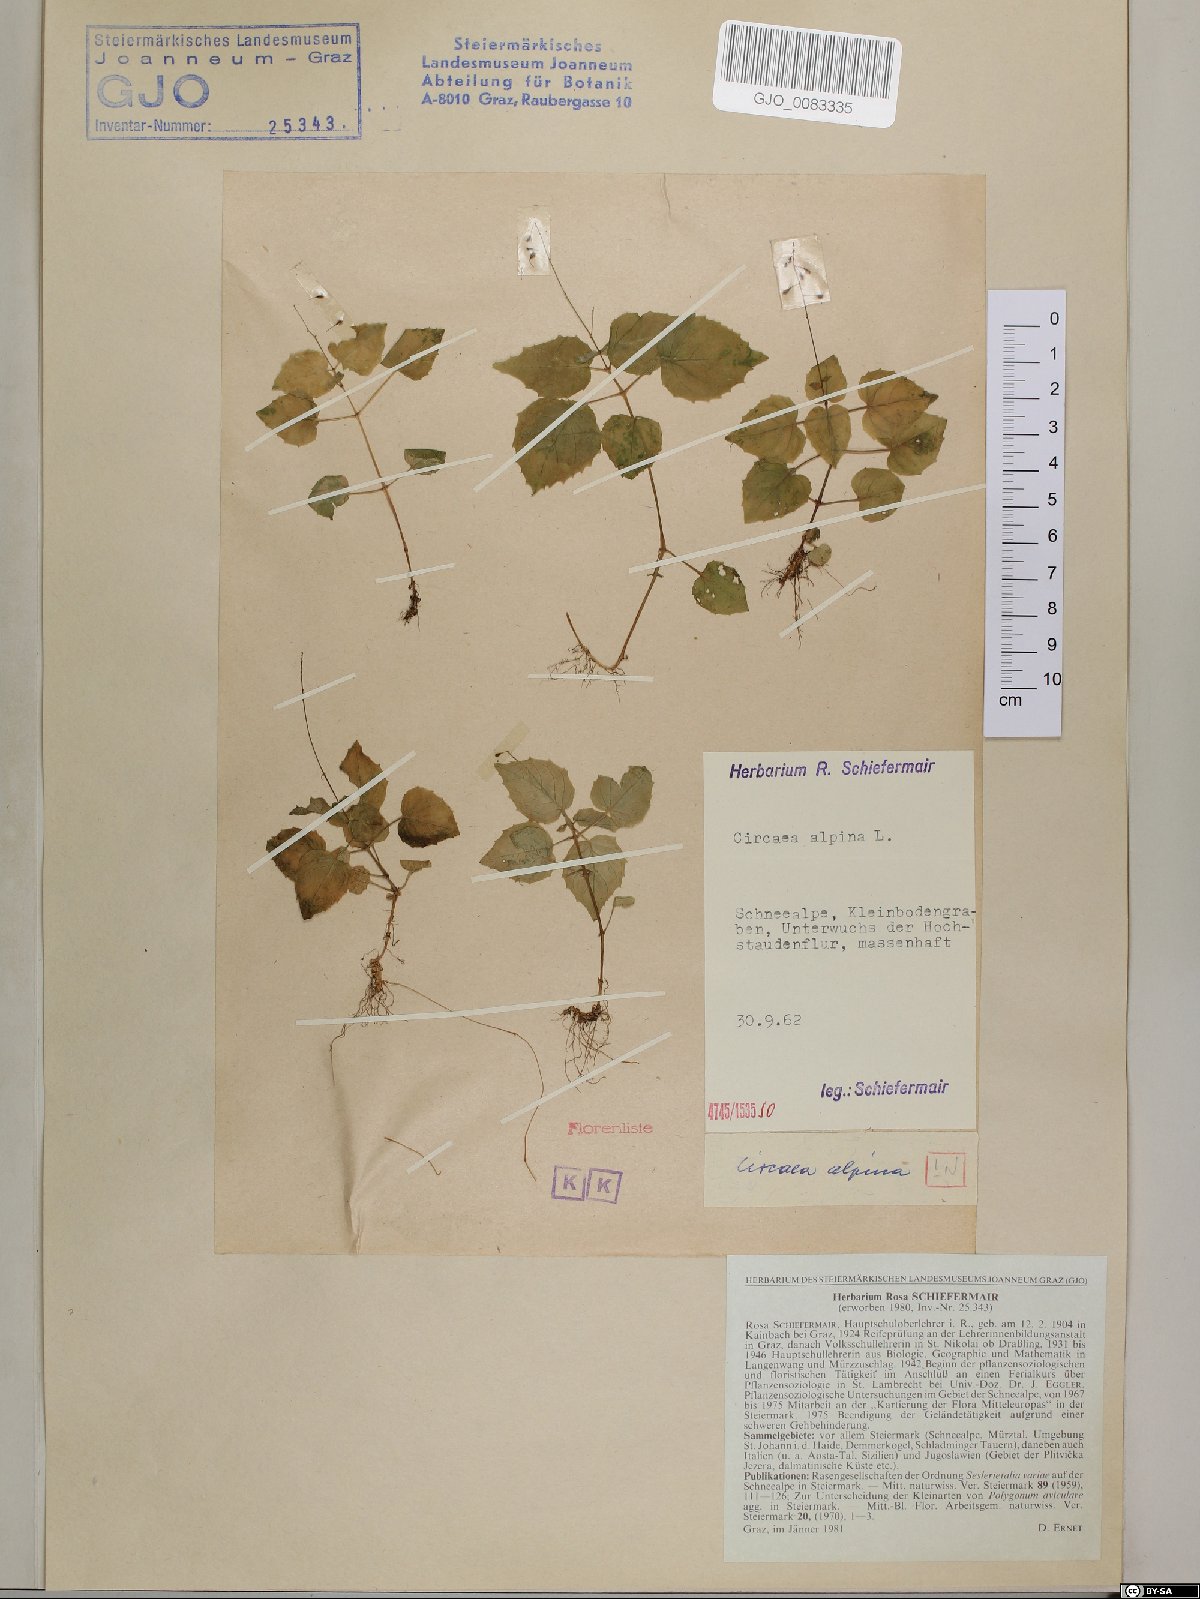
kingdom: Plantae
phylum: Tracheophyta
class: Magnoliopsida
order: Myrtales
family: Onagraceae
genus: Circaea
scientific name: Circaea alpina
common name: Alpine enchanter's-nightshade
